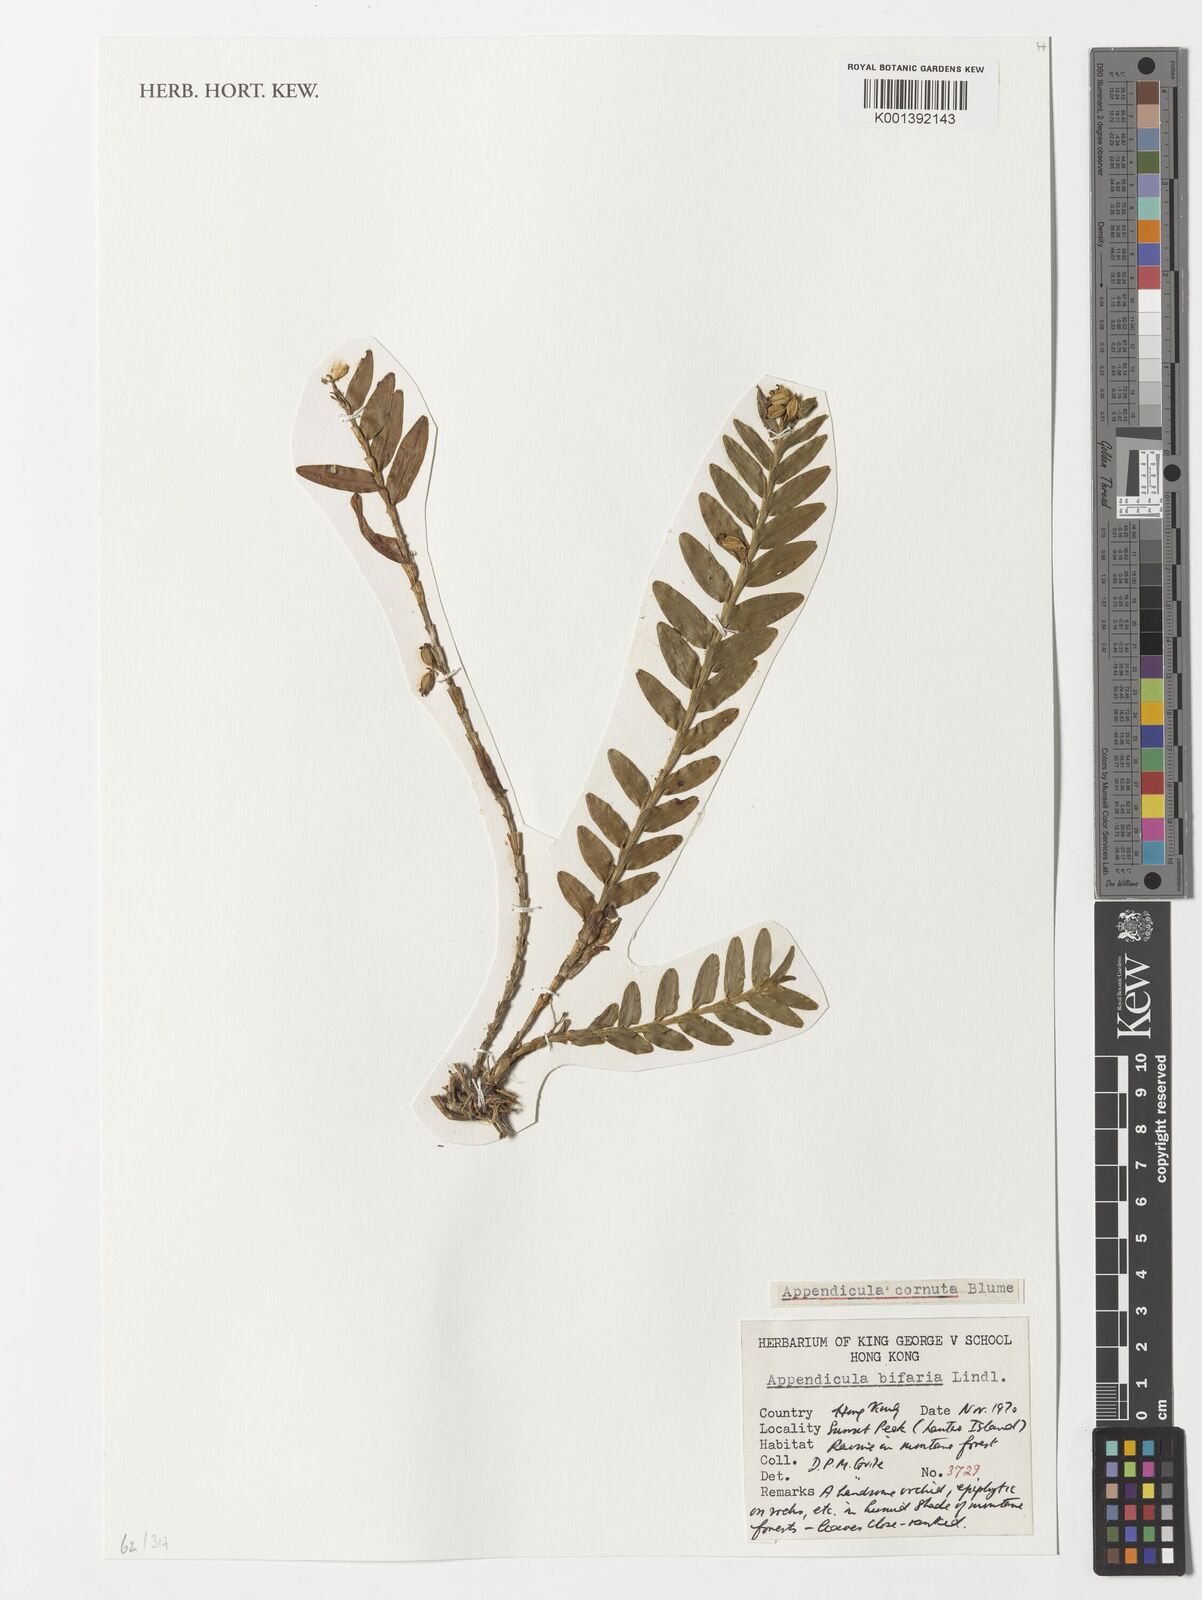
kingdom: Plantae
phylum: Tracheophyta
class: Liliopsida
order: Asparagales
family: Orchidaceae
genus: Appendicula
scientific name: Appendicula cornuta
